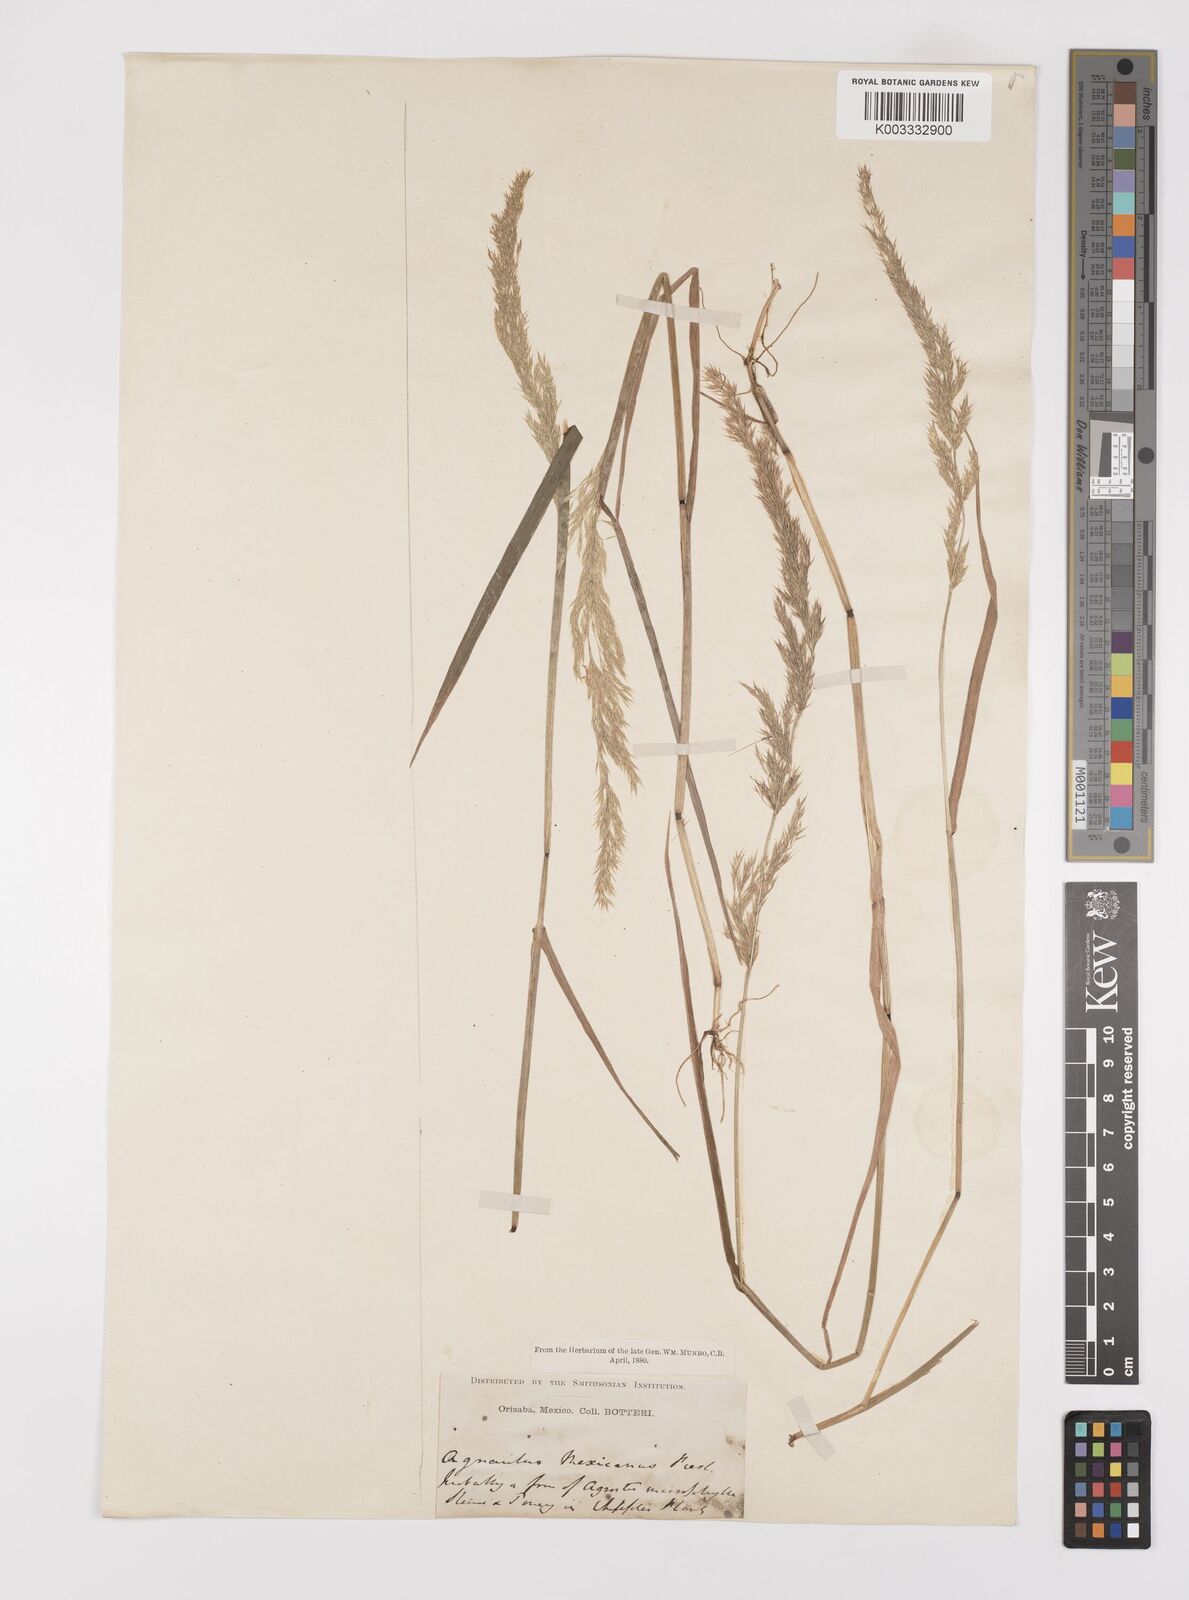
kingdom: Plantae
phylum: Tracheophyta
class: Liliopsida
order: Poales
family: Poaceae
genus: Polypogon
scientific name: Polypogon elongatus
